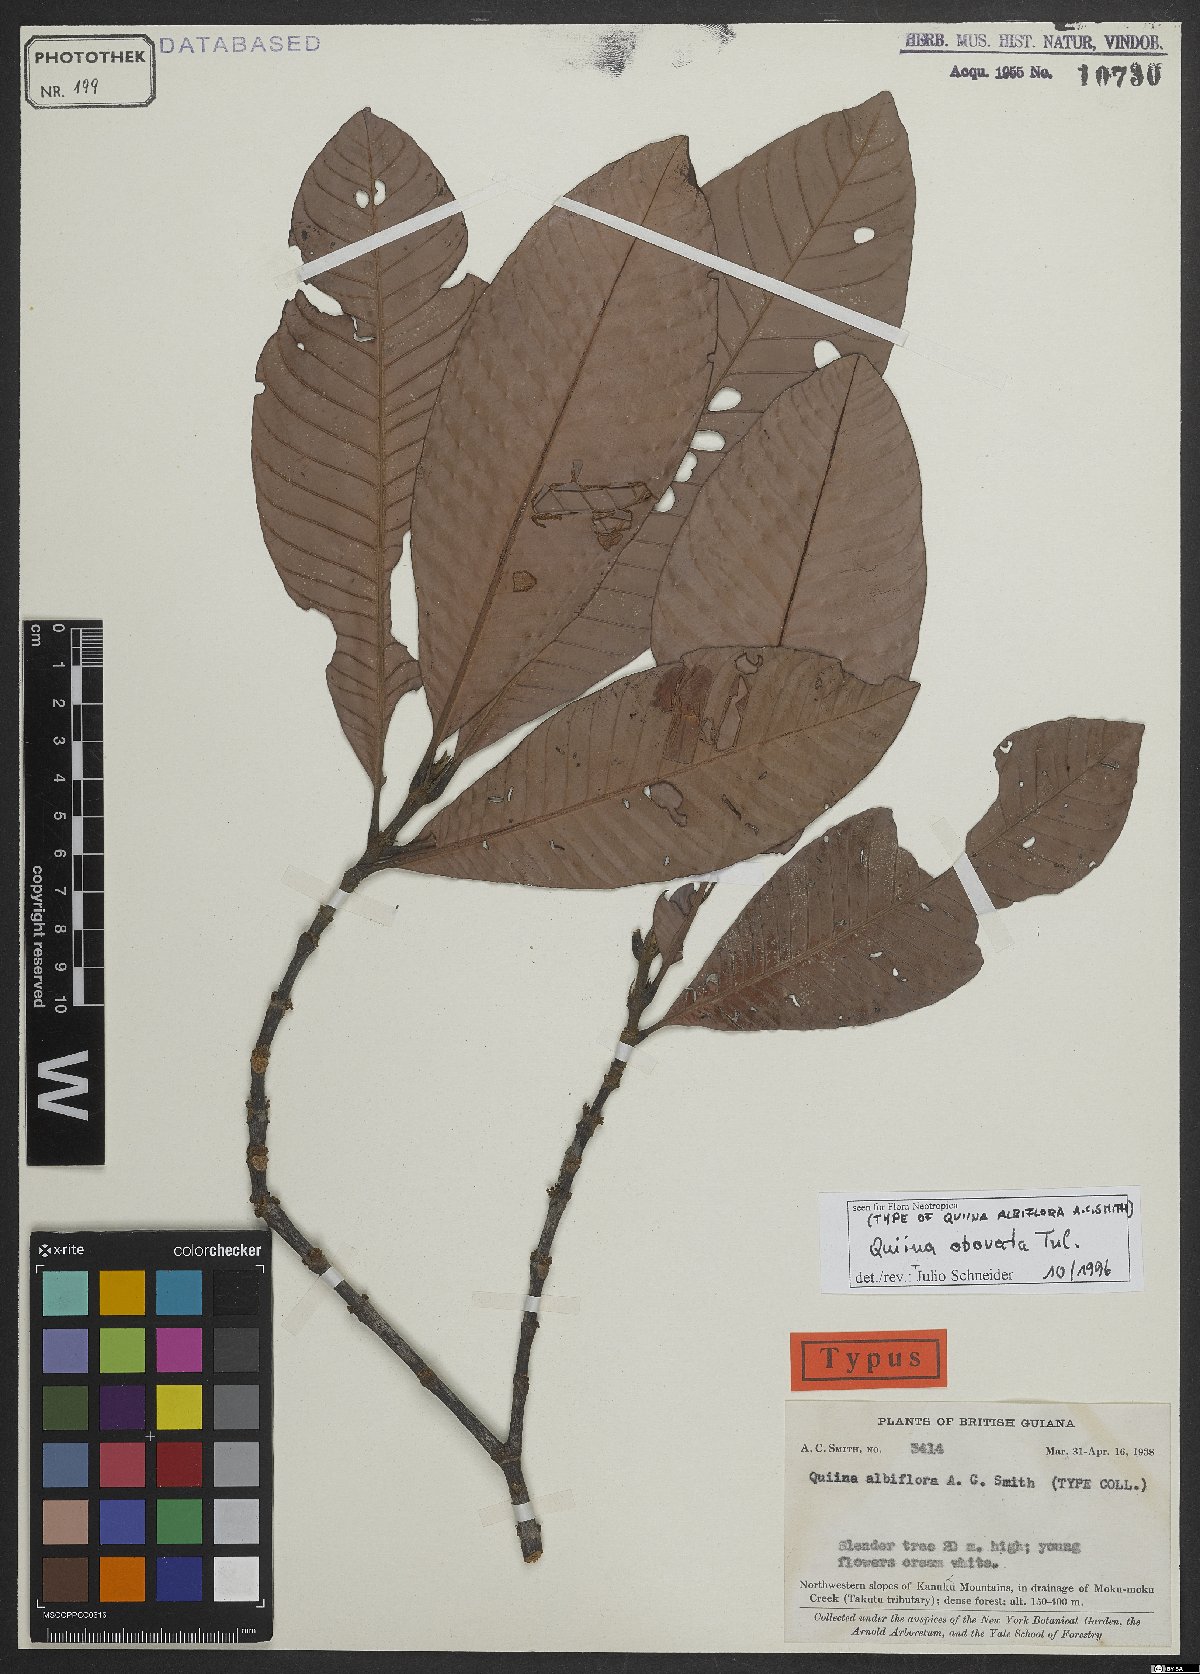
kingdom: Plantae
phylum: Tracheophyta
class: Magnoliopsida
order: Malpighiales
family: Quiinaceae
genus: Quiina
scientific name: Quiina obovata
